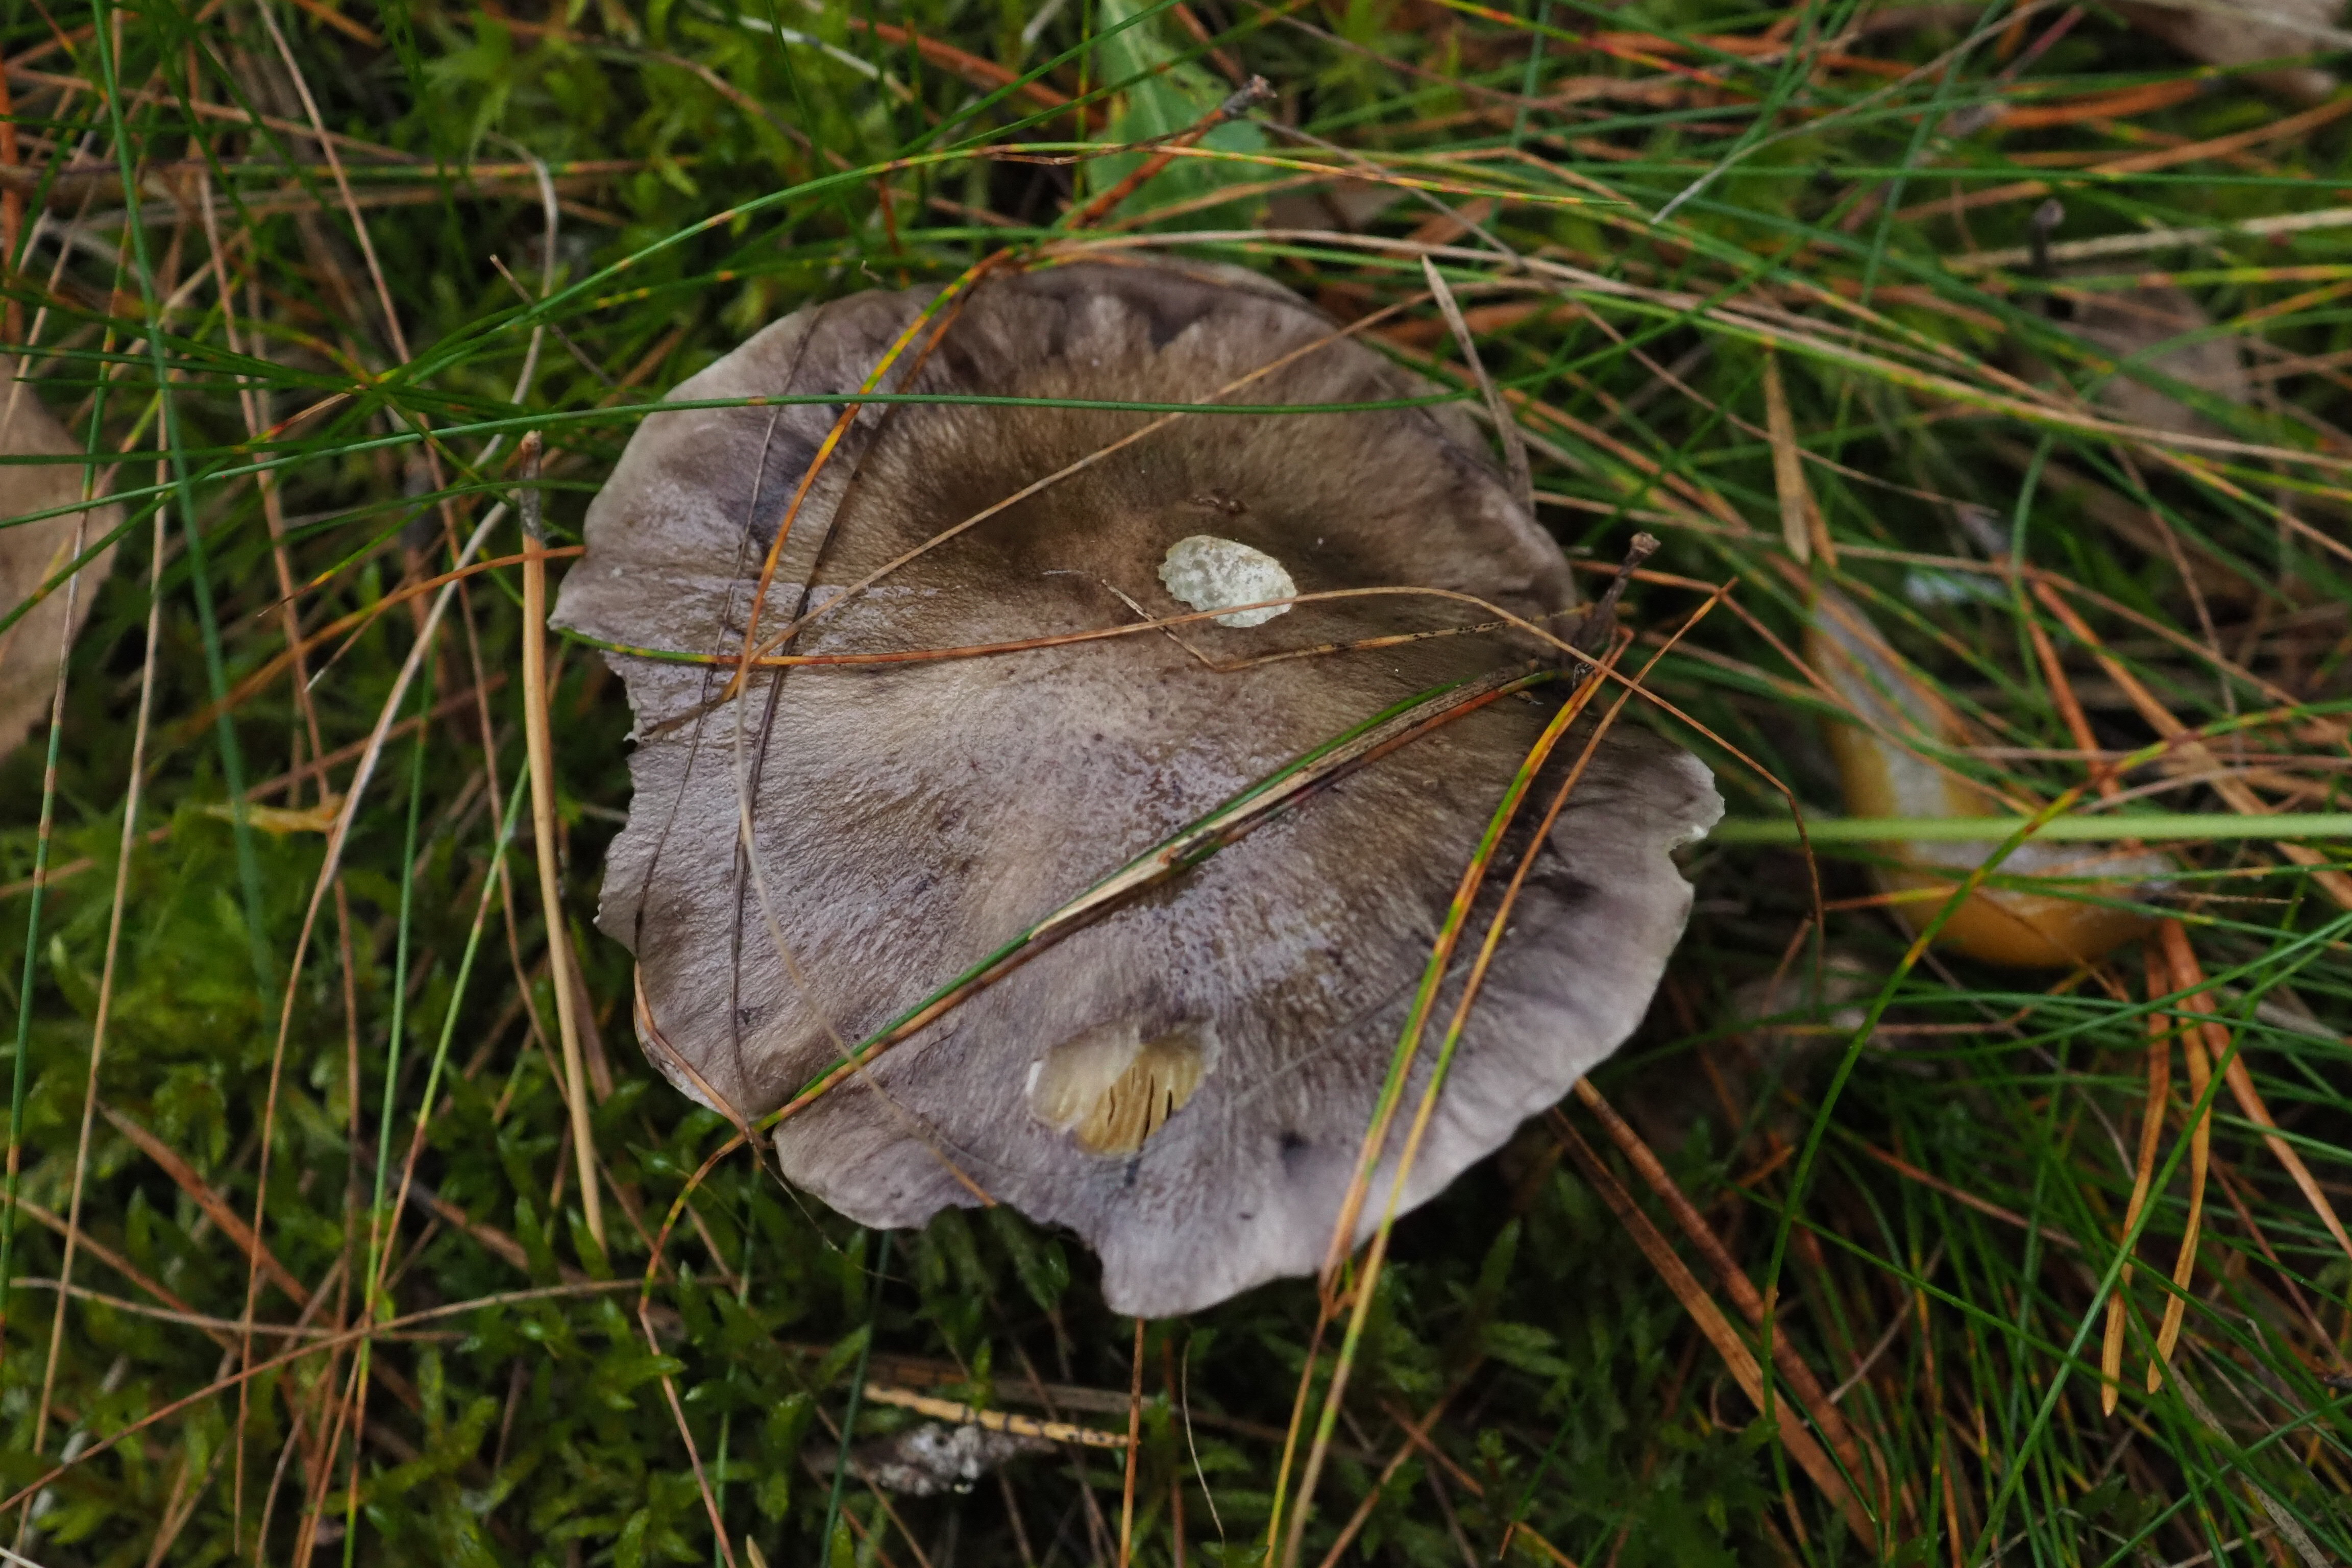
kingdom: Fungi
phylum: Basidiomycota
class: Agaricomycetes
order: Agaricales
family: Tricholomataceae
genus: Tricholoma
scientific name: Tricholoma portentosum
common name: Coalman
